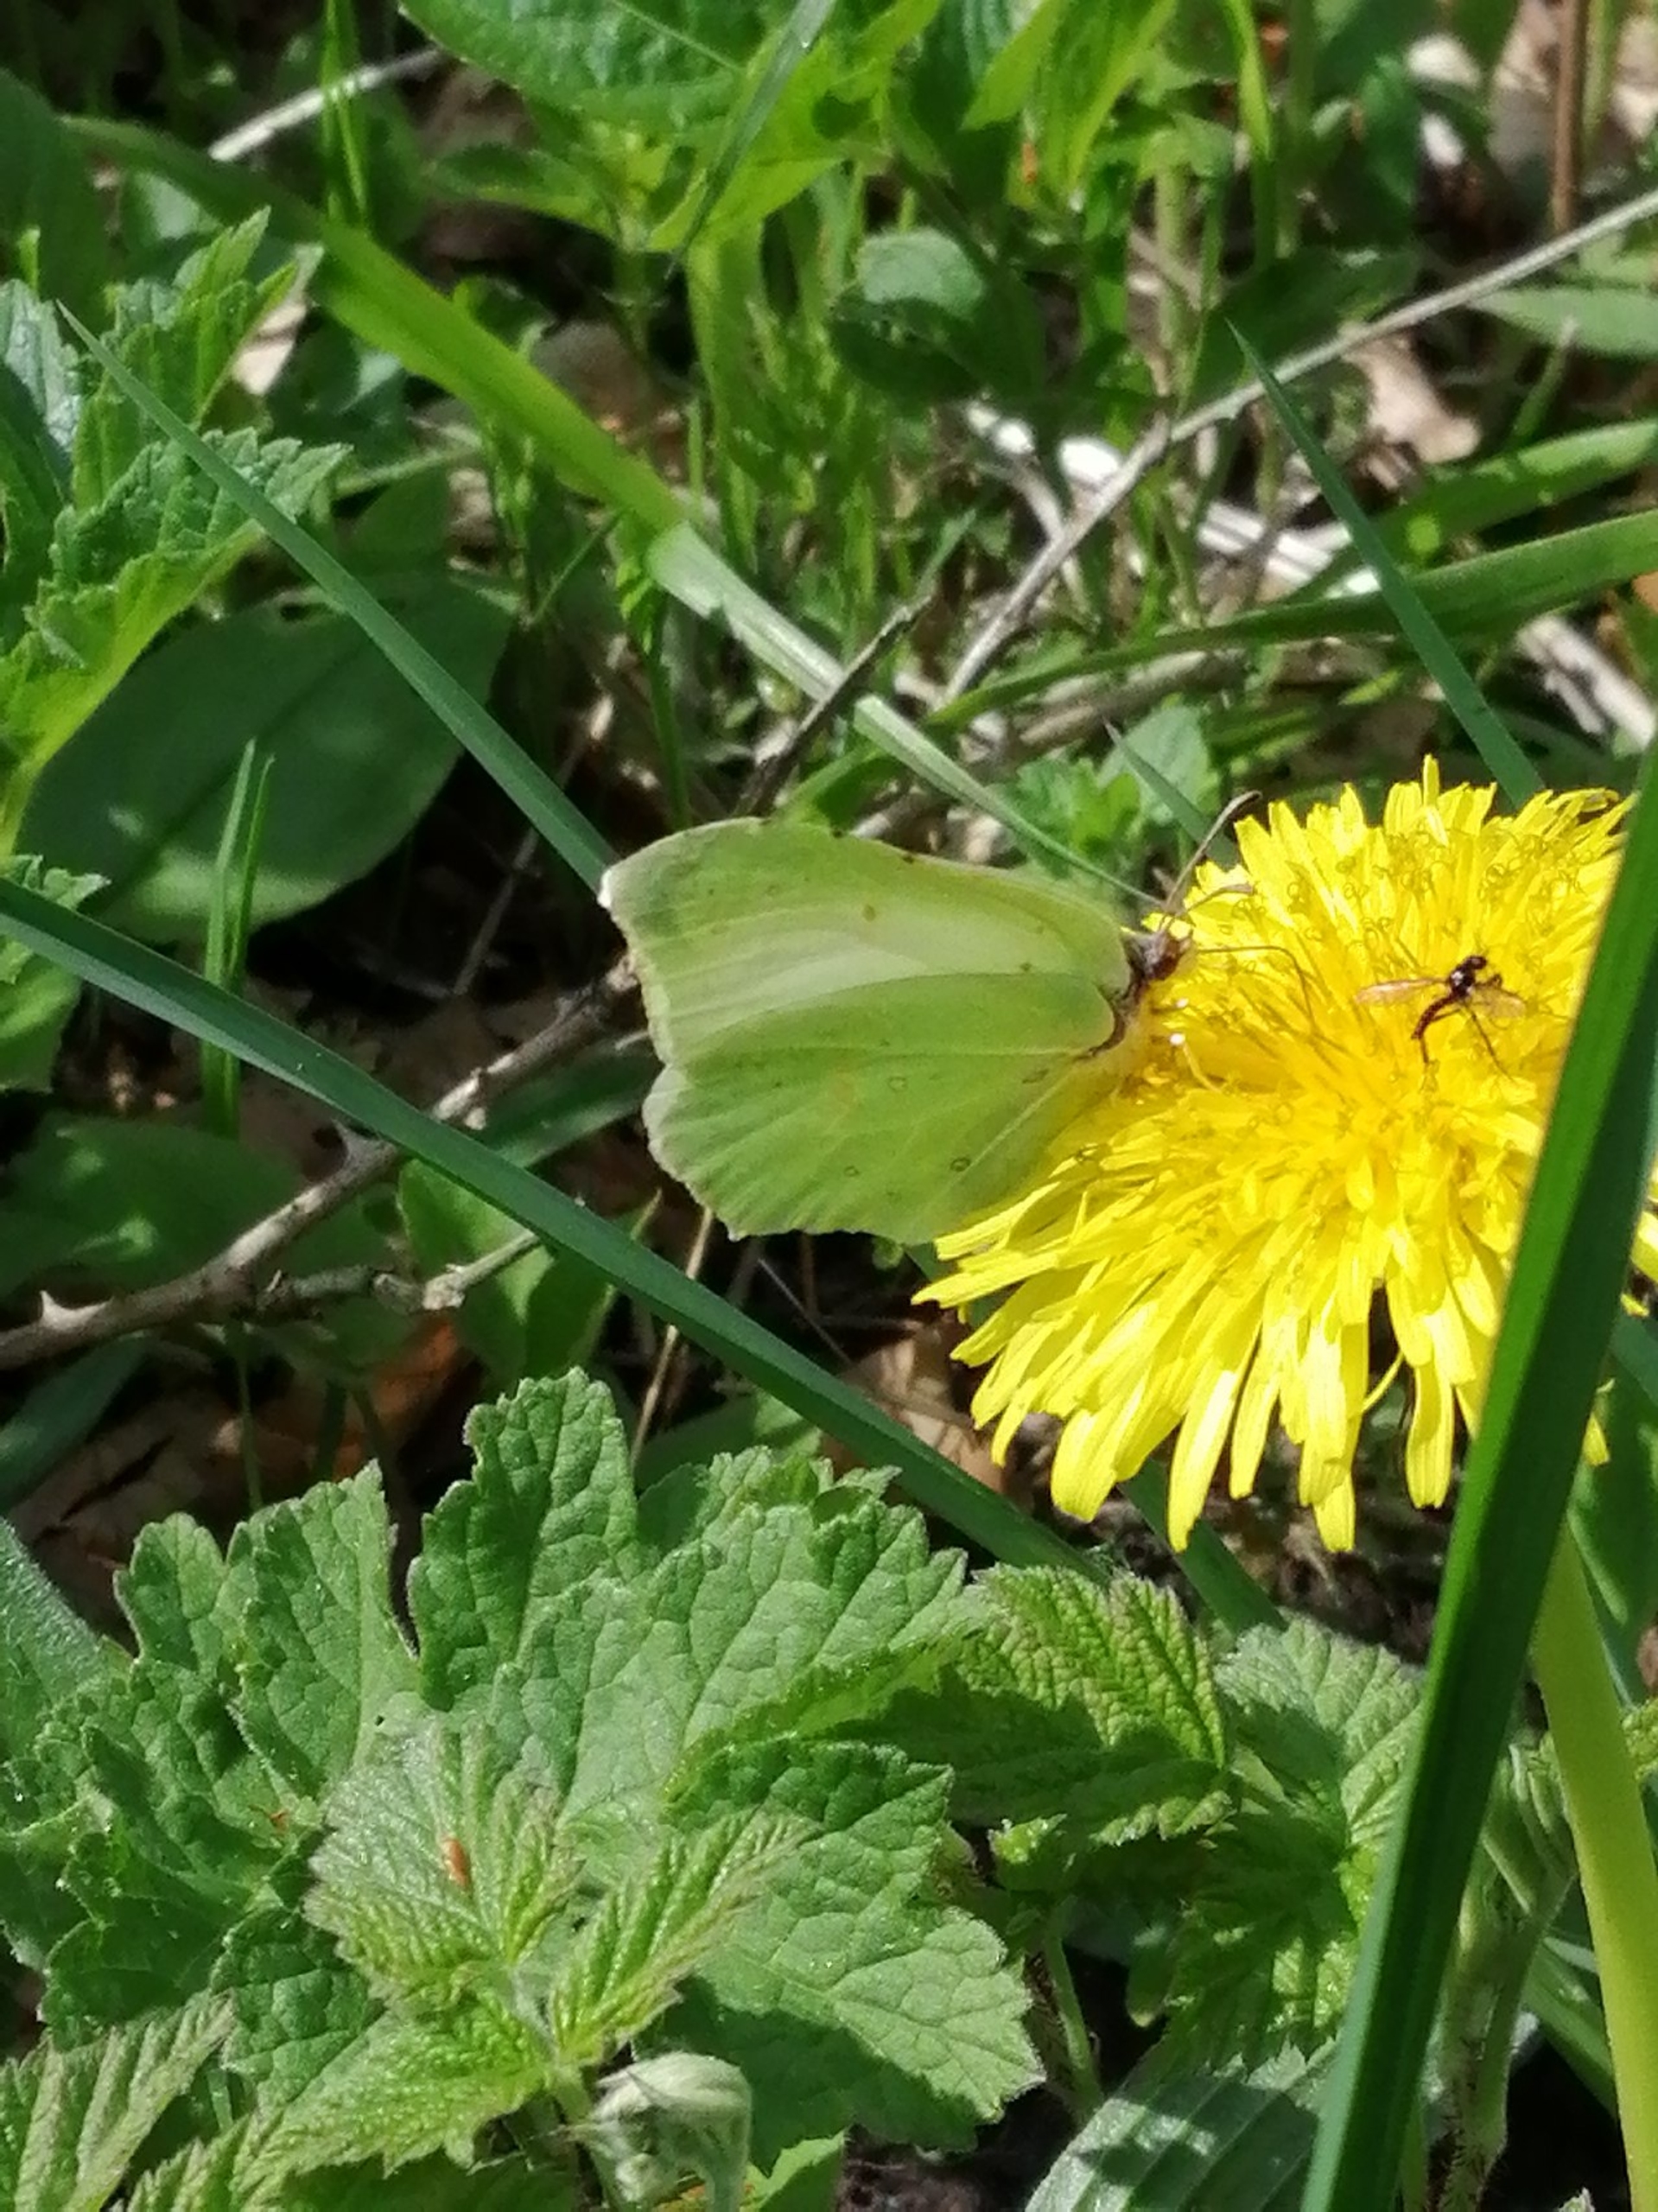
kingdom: Animalia
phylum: Arthropoda
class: Insecta
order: Lepidoptera
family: Pieridae
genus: Gonepteryx
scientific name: Gonepteryx rhamni
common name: Citronsommerfugl
